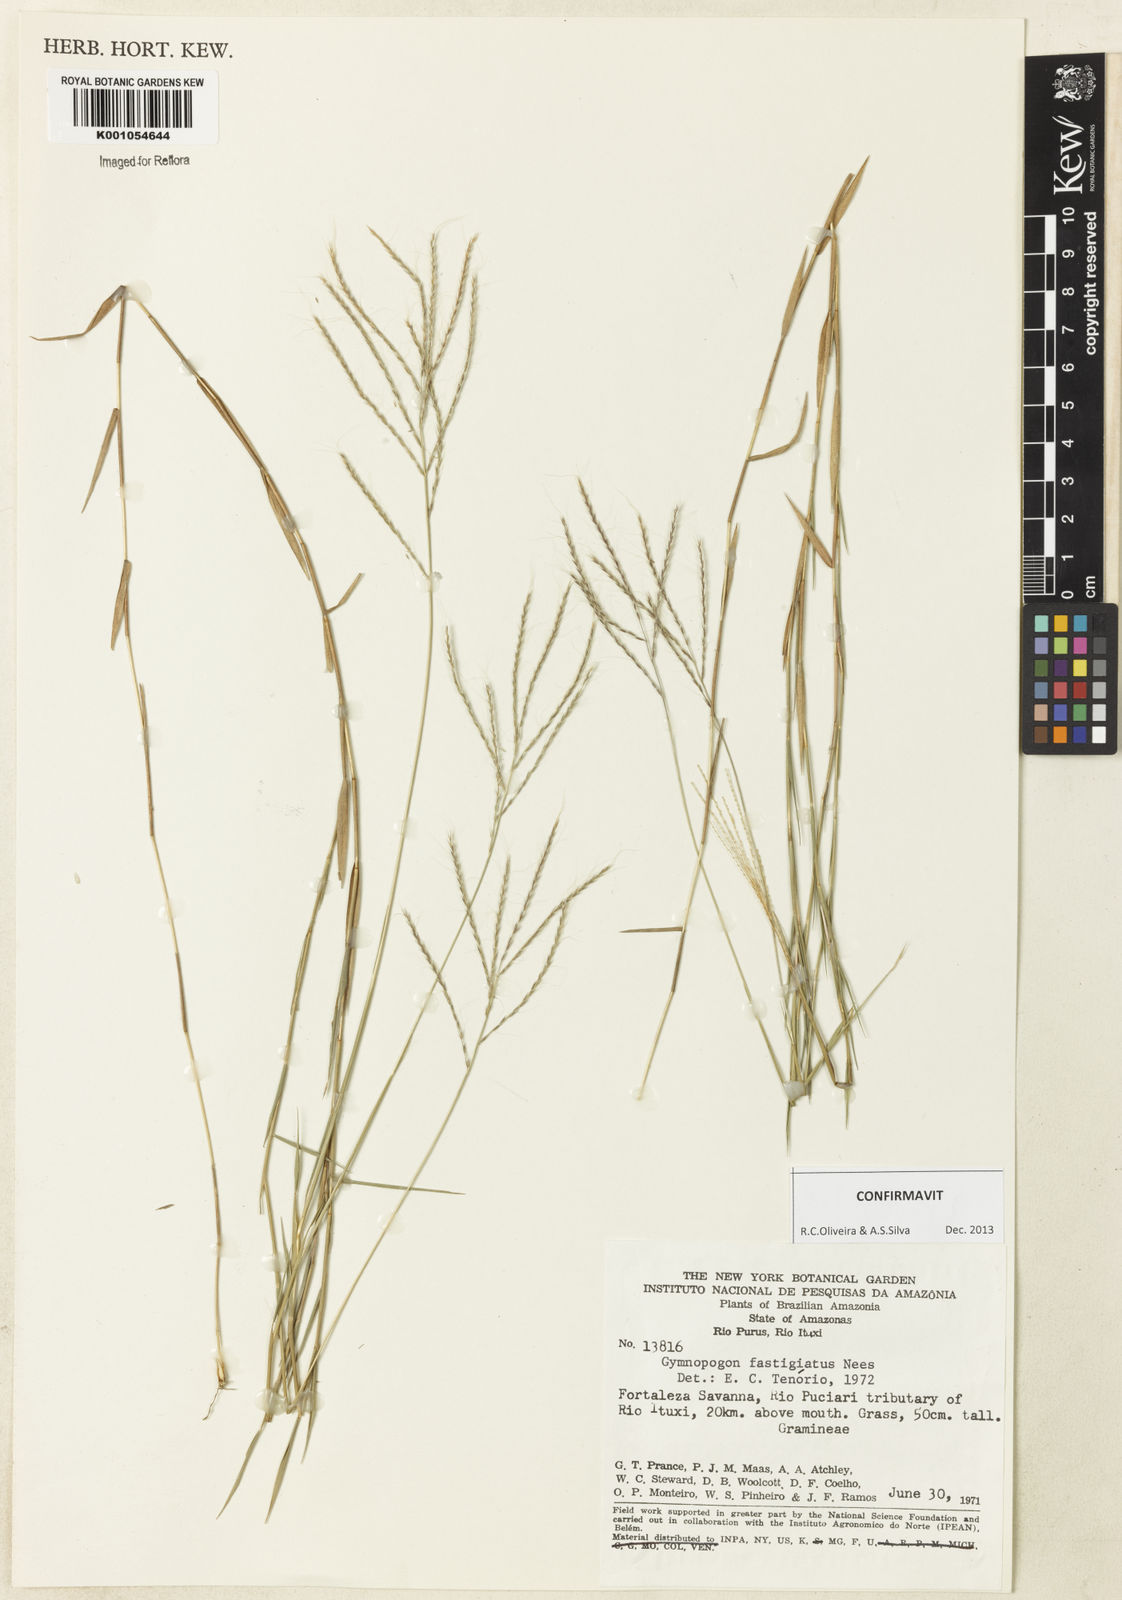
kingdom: Plantae
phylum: Tracheophyta
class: Liliopsida
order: Poales
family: Poaceae
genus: Gymnopogon
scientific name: Gymnopogon fastigiatus
